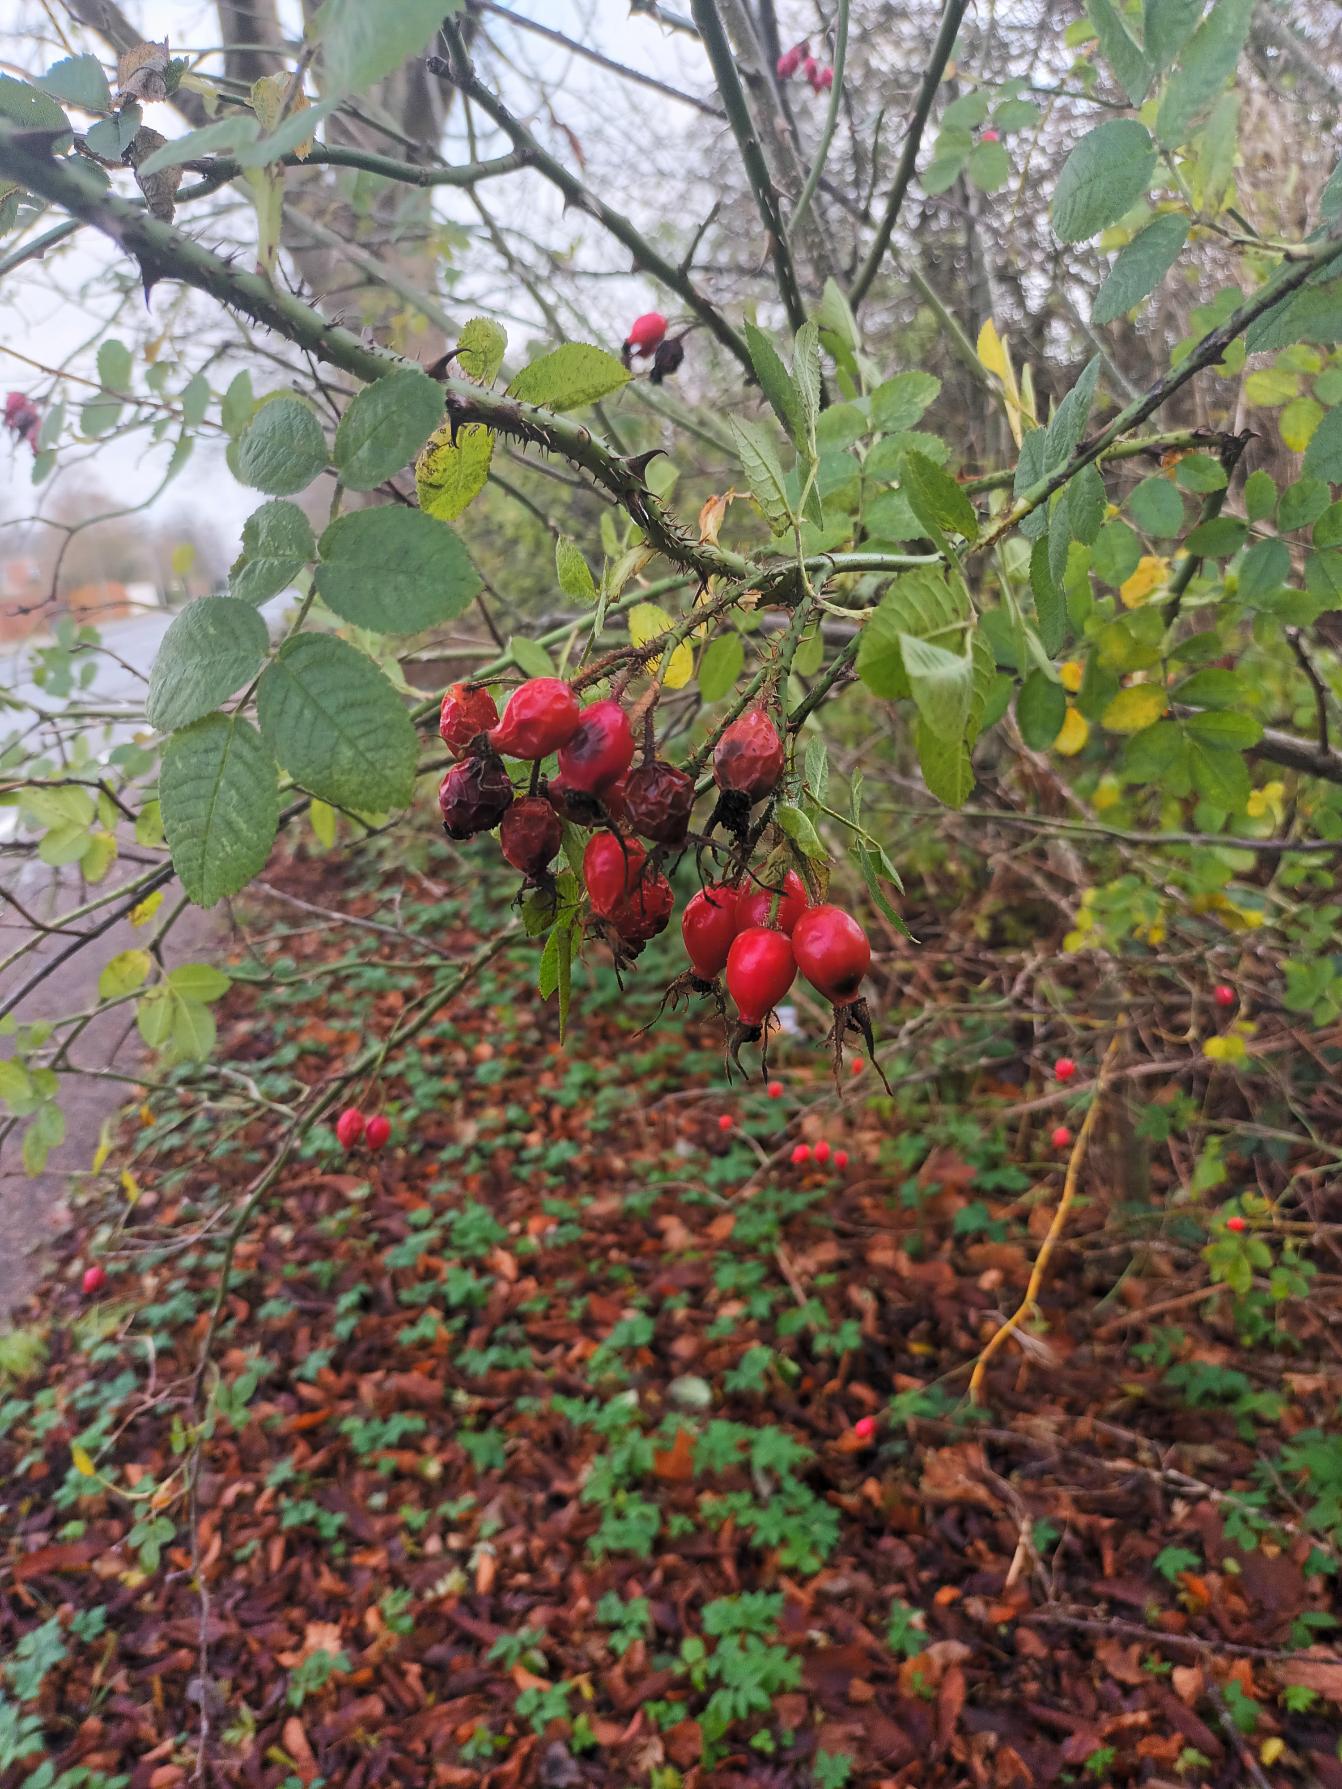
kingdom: Plantae
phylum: Tracheophyta
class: Magnoliopsida
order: Rosales
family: Rosaceae
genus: Rosa
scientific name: Rosa rubiginosa
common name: Æble-rose
